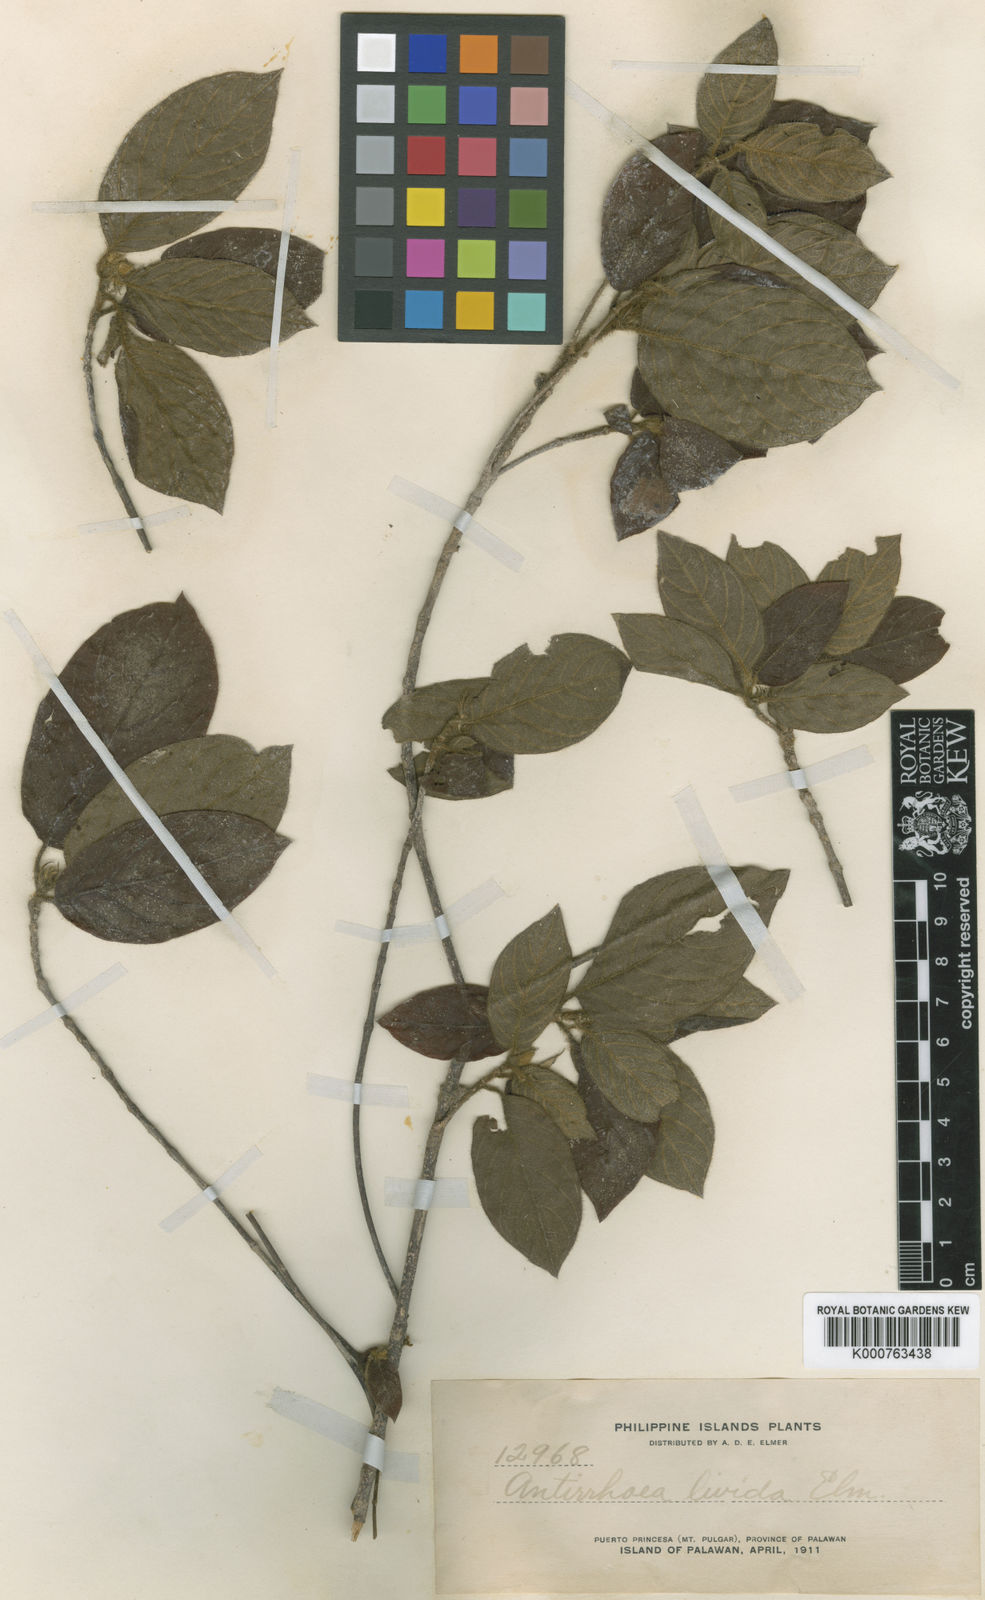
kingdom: Plantae
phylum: Tracheophyta
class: Magnoliopsida
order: Gentianales
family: Rubiaceae
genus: Guettardella
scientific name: Guettardella livida
